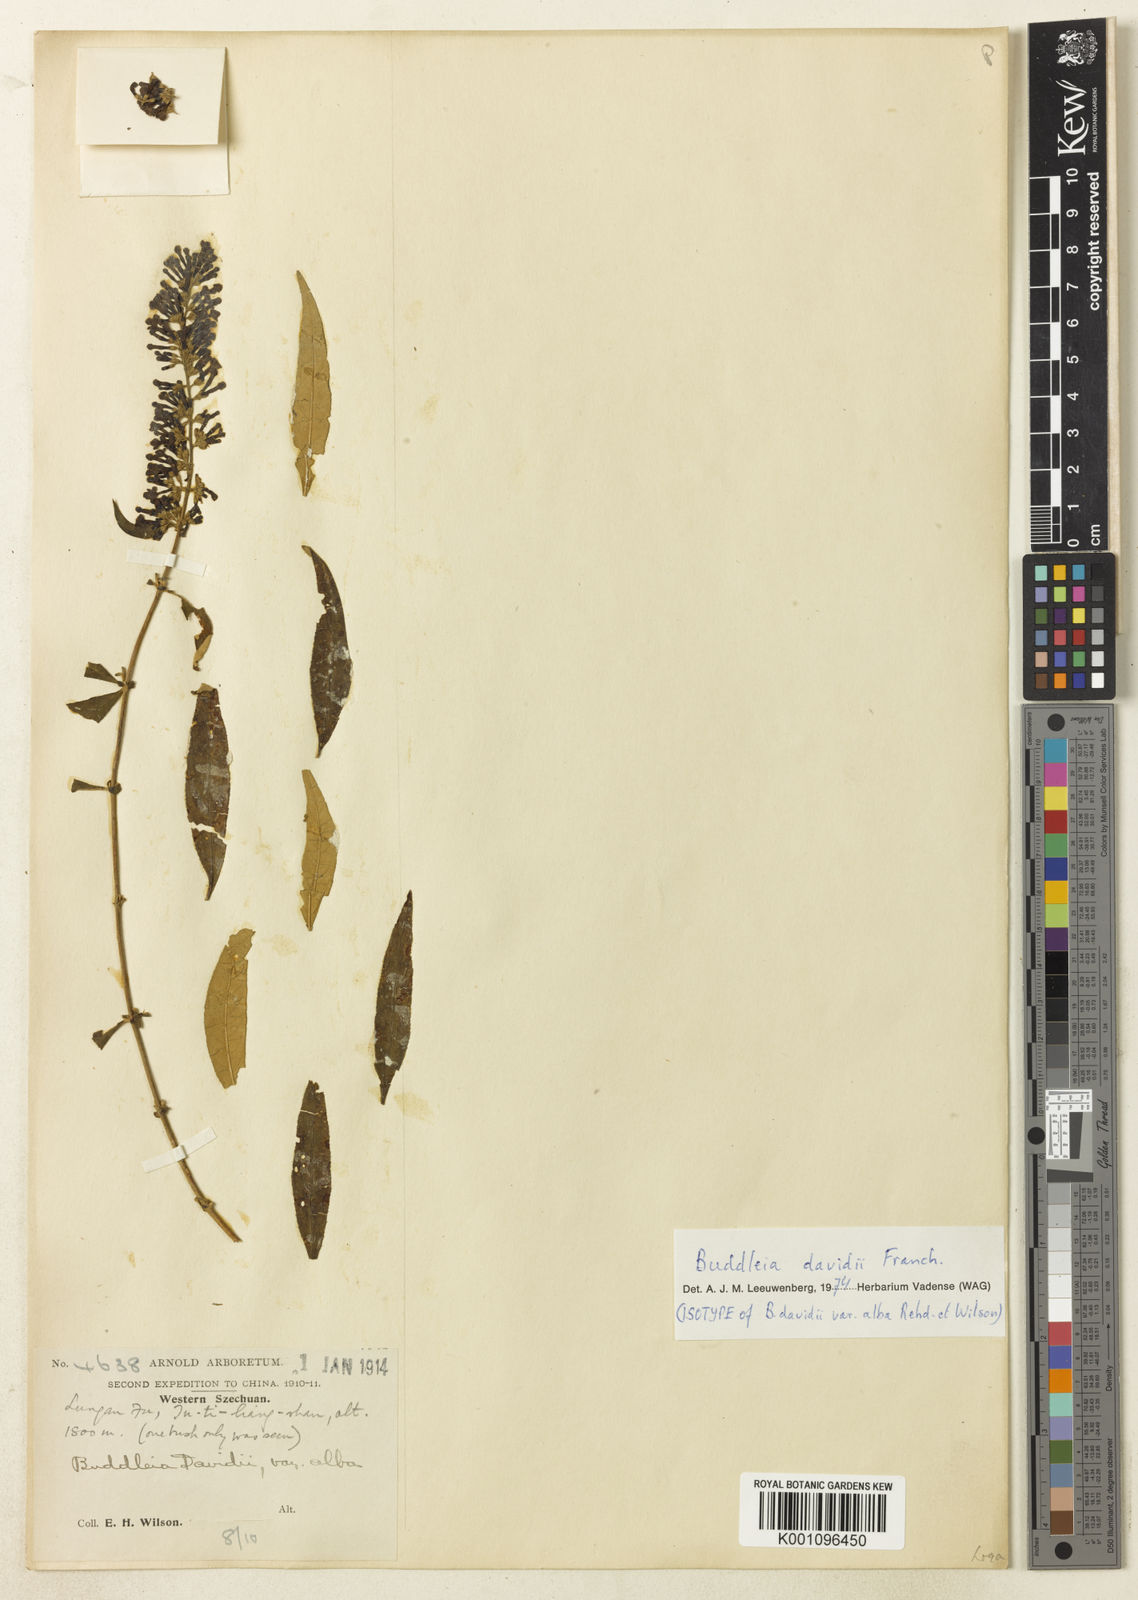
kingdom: Plantae
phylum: Tracheophyta
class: Magnoliopsida
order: Lamiales
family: Scrophulariaceae
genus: Buddleja
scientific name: Buddleja davidii
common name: Butterfly-bush
